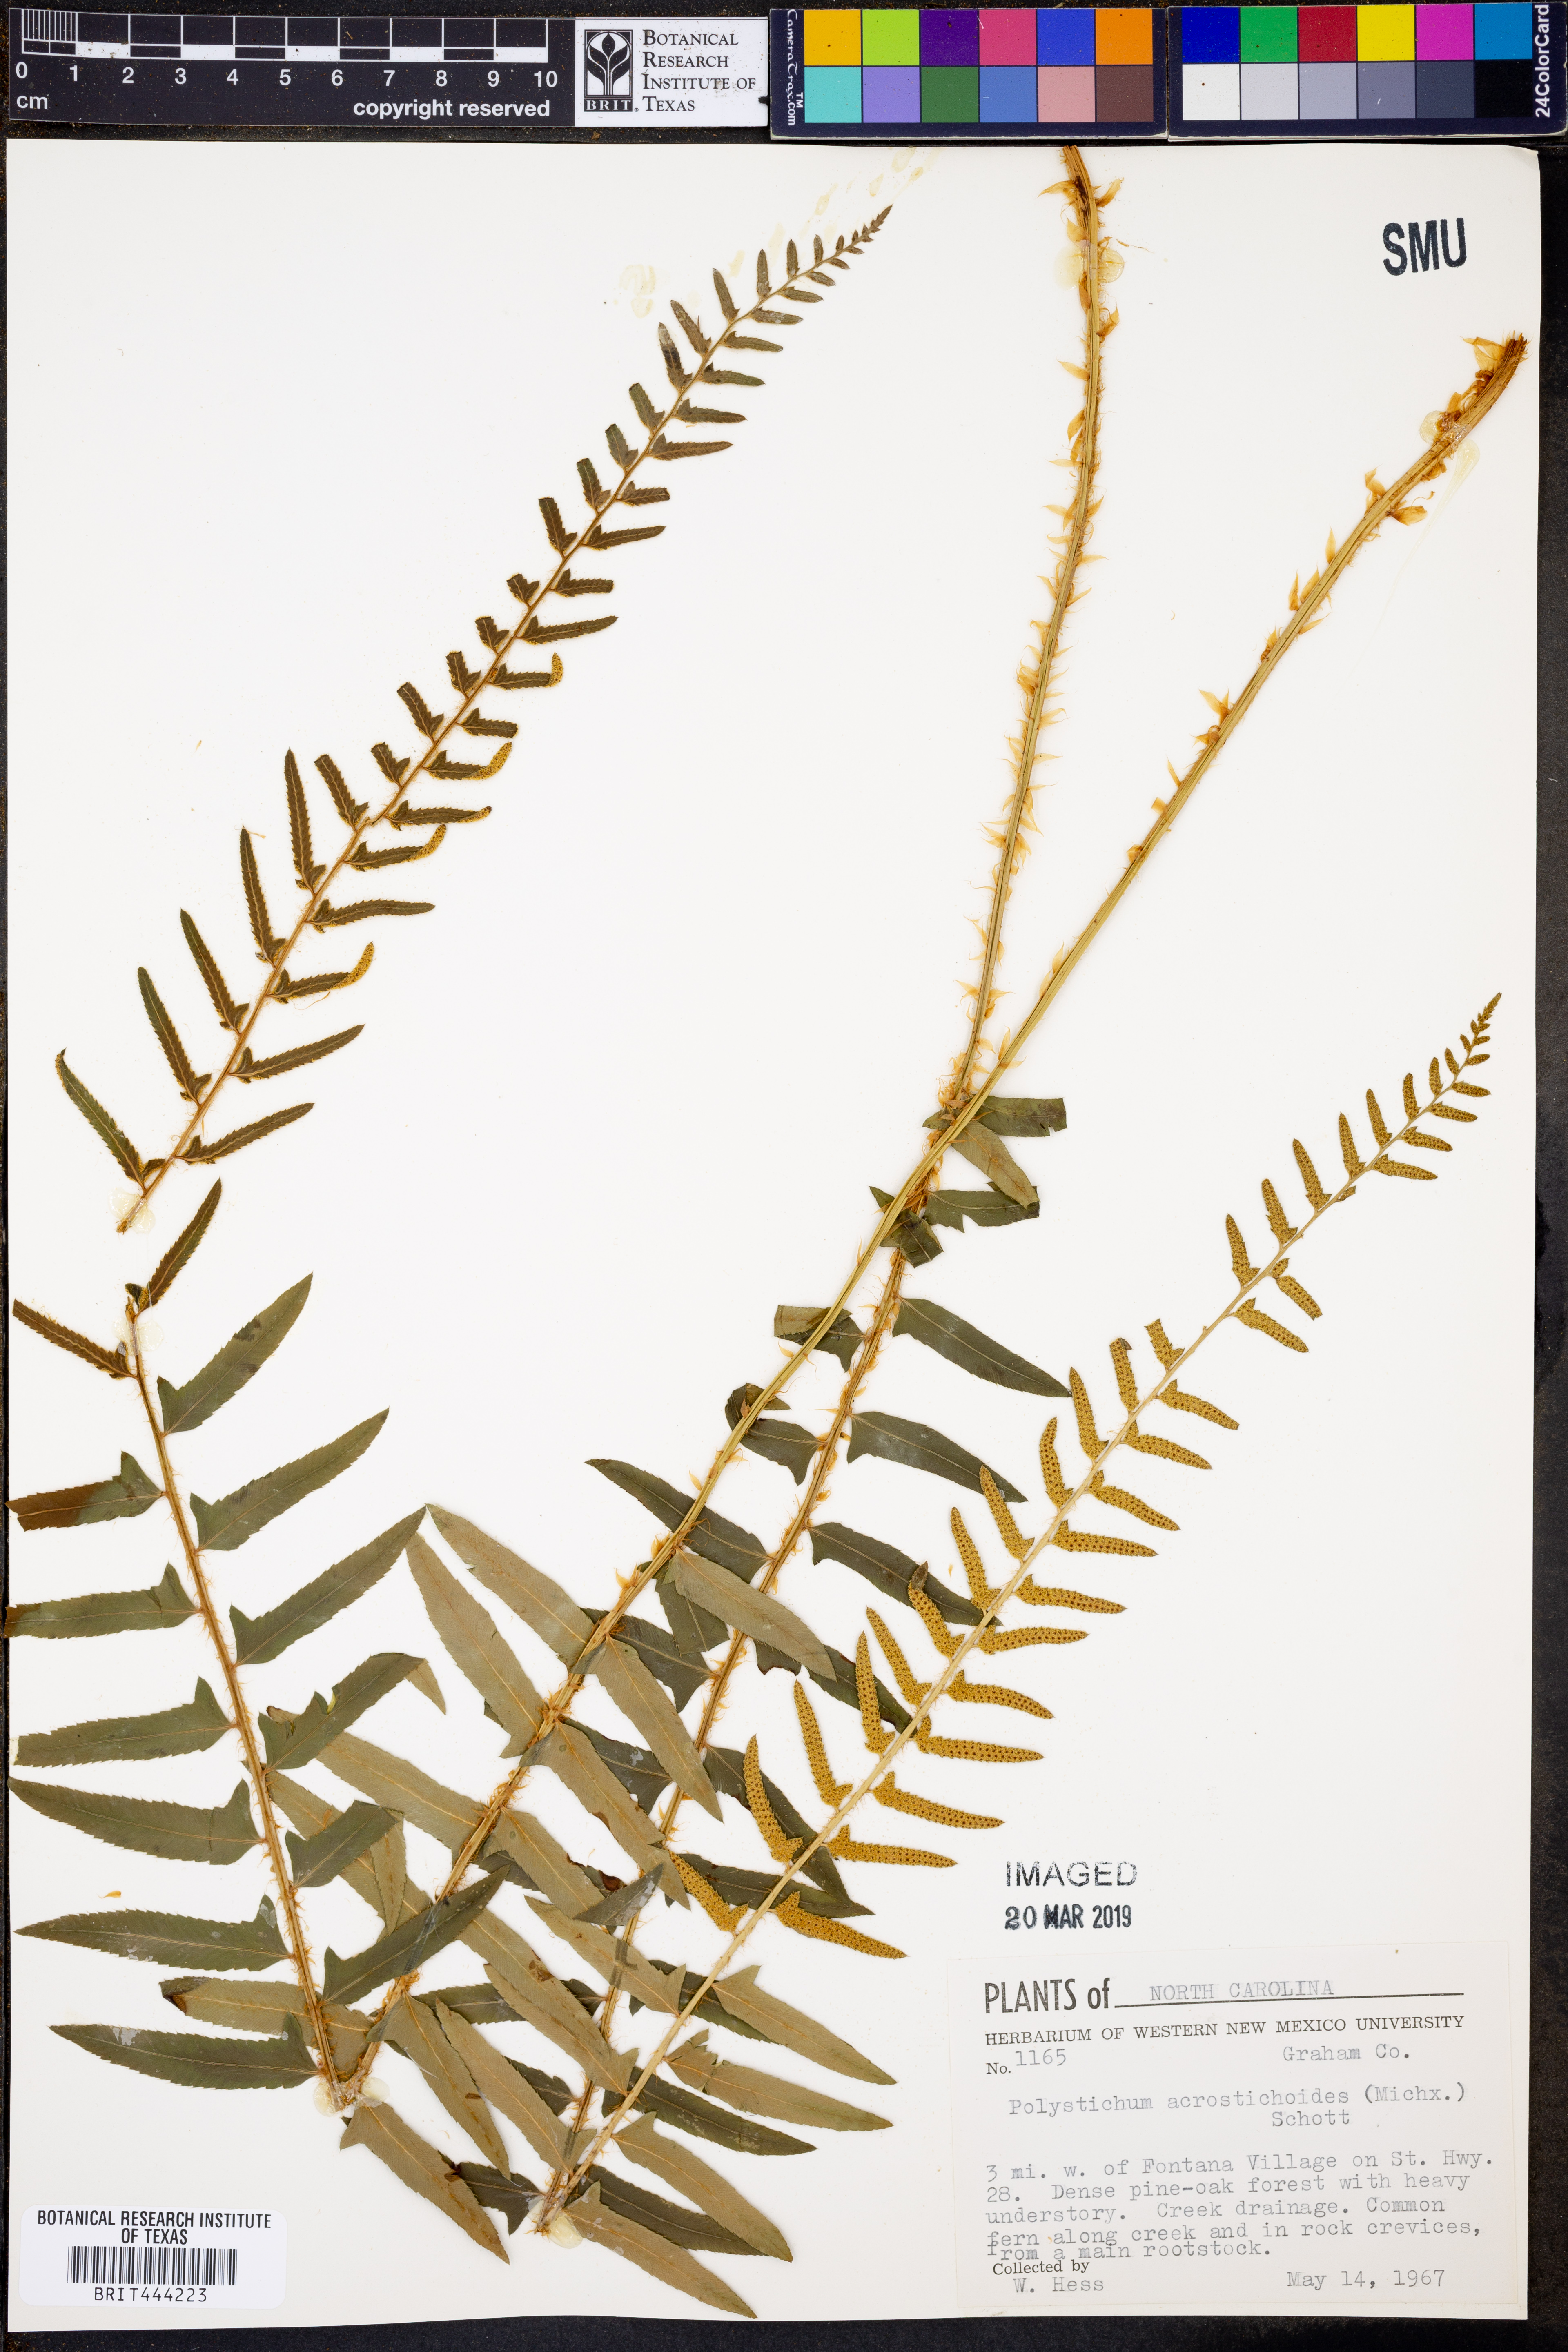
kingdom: Plantae
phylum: Tracheophyta
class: Polypodiopsida
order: Polypodiales
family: Dryopteridaceae
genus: Polystichum
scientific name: Polystichum acrostichoides
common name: Christmas fern
